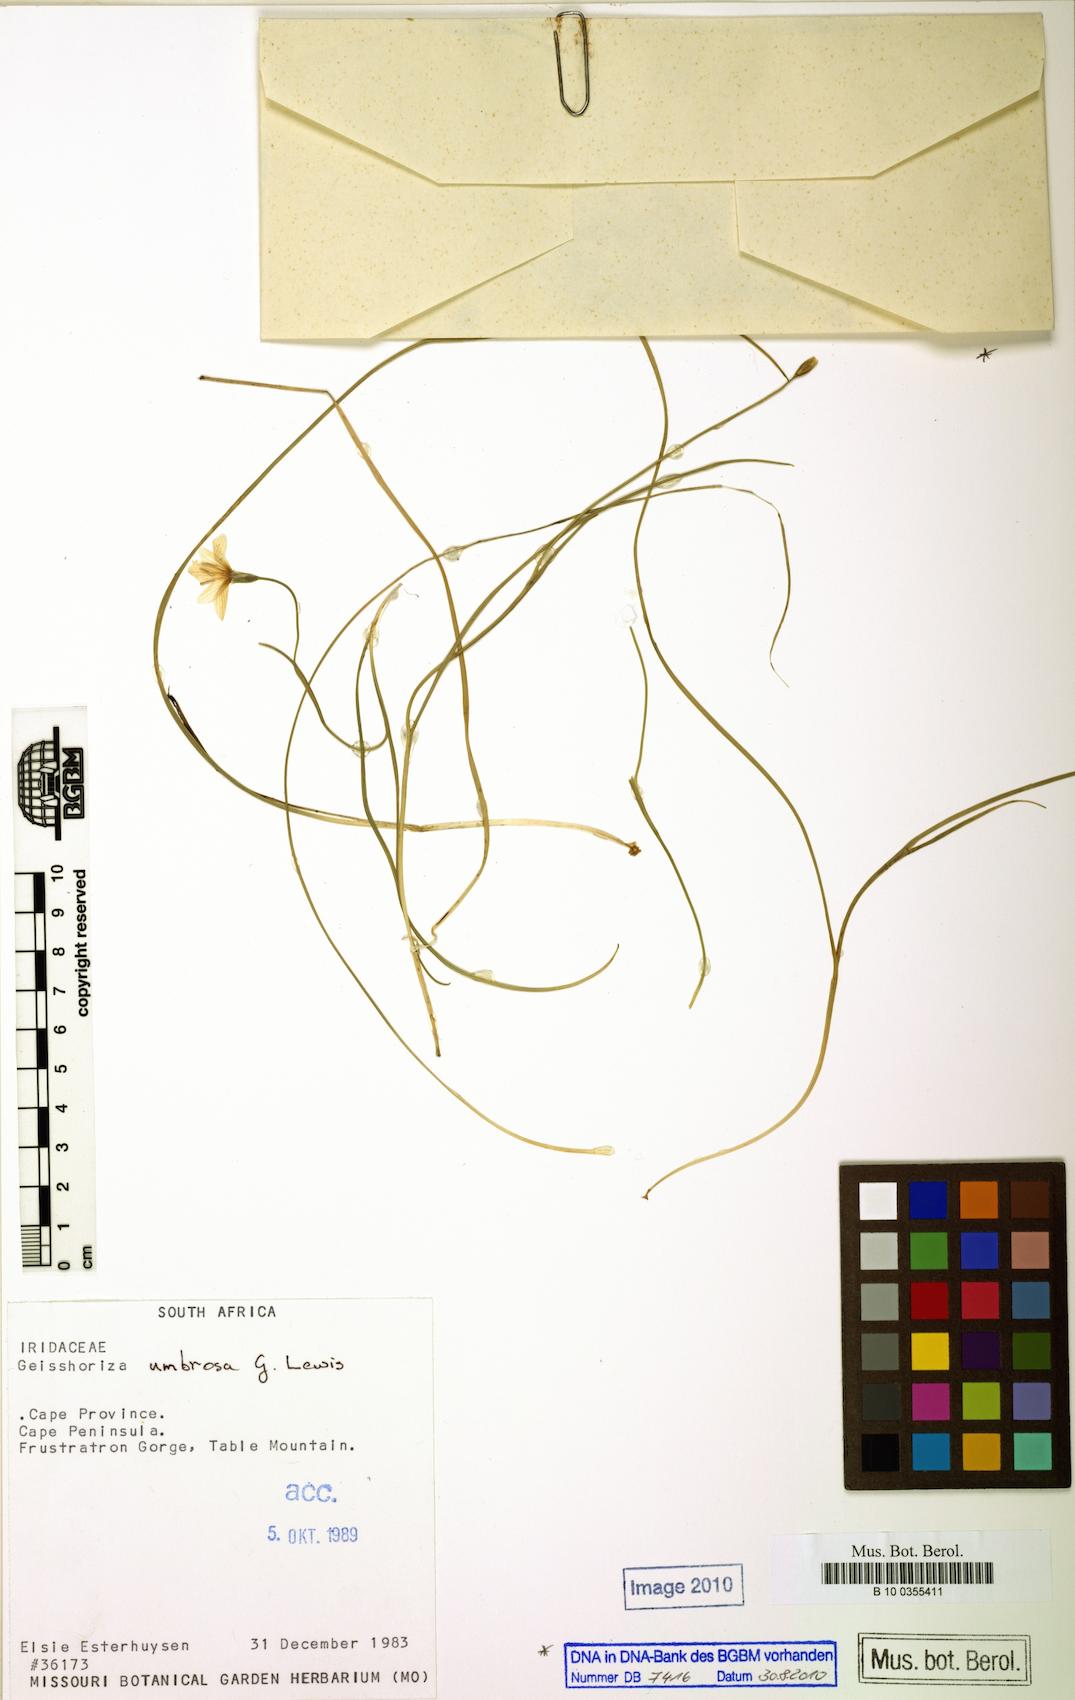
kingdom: Plantae
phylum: Tracheophyta
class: Liliopsida
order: Asparagales
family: Iridaceae
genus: Geissorhiza
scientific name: Geissorhiza umbrosa
